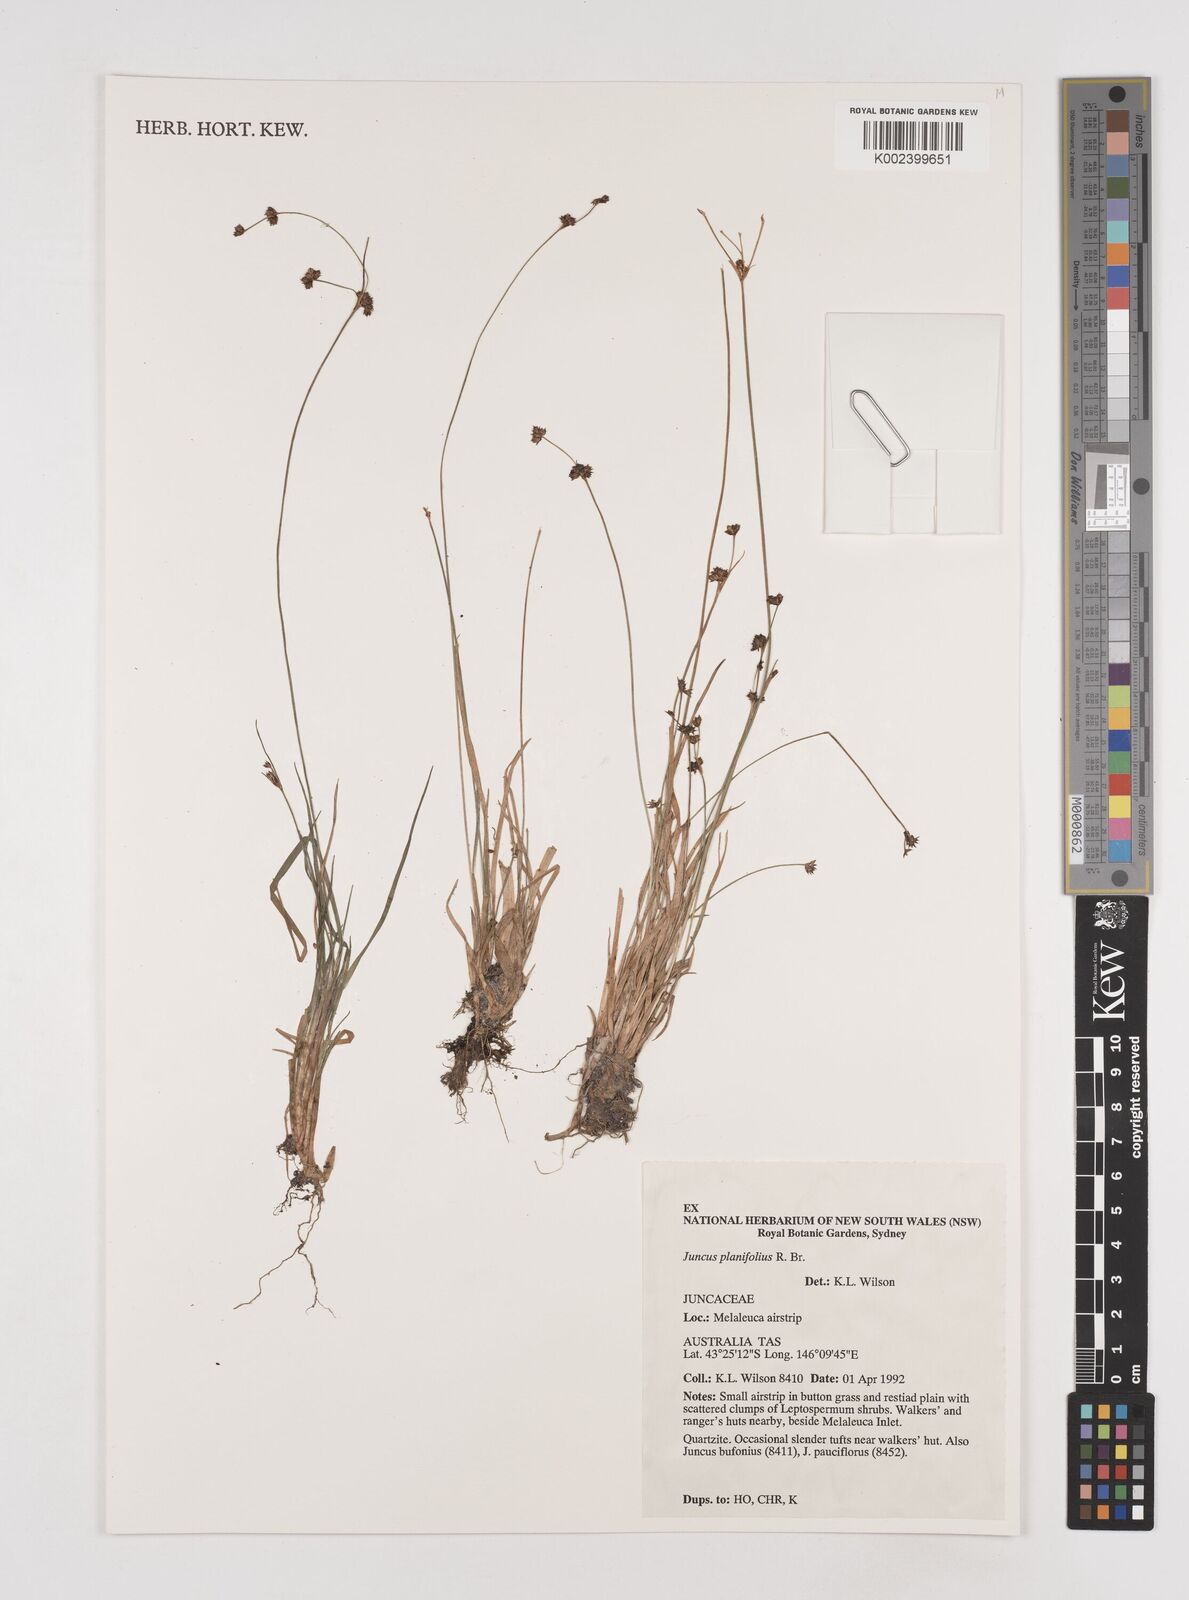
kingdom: Plantae
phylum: Tracheophyta
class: Liliopsida
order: Poales
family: Juncaceae
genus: Juncus
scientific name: Juncus planifolius
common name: Broadleaf rush
